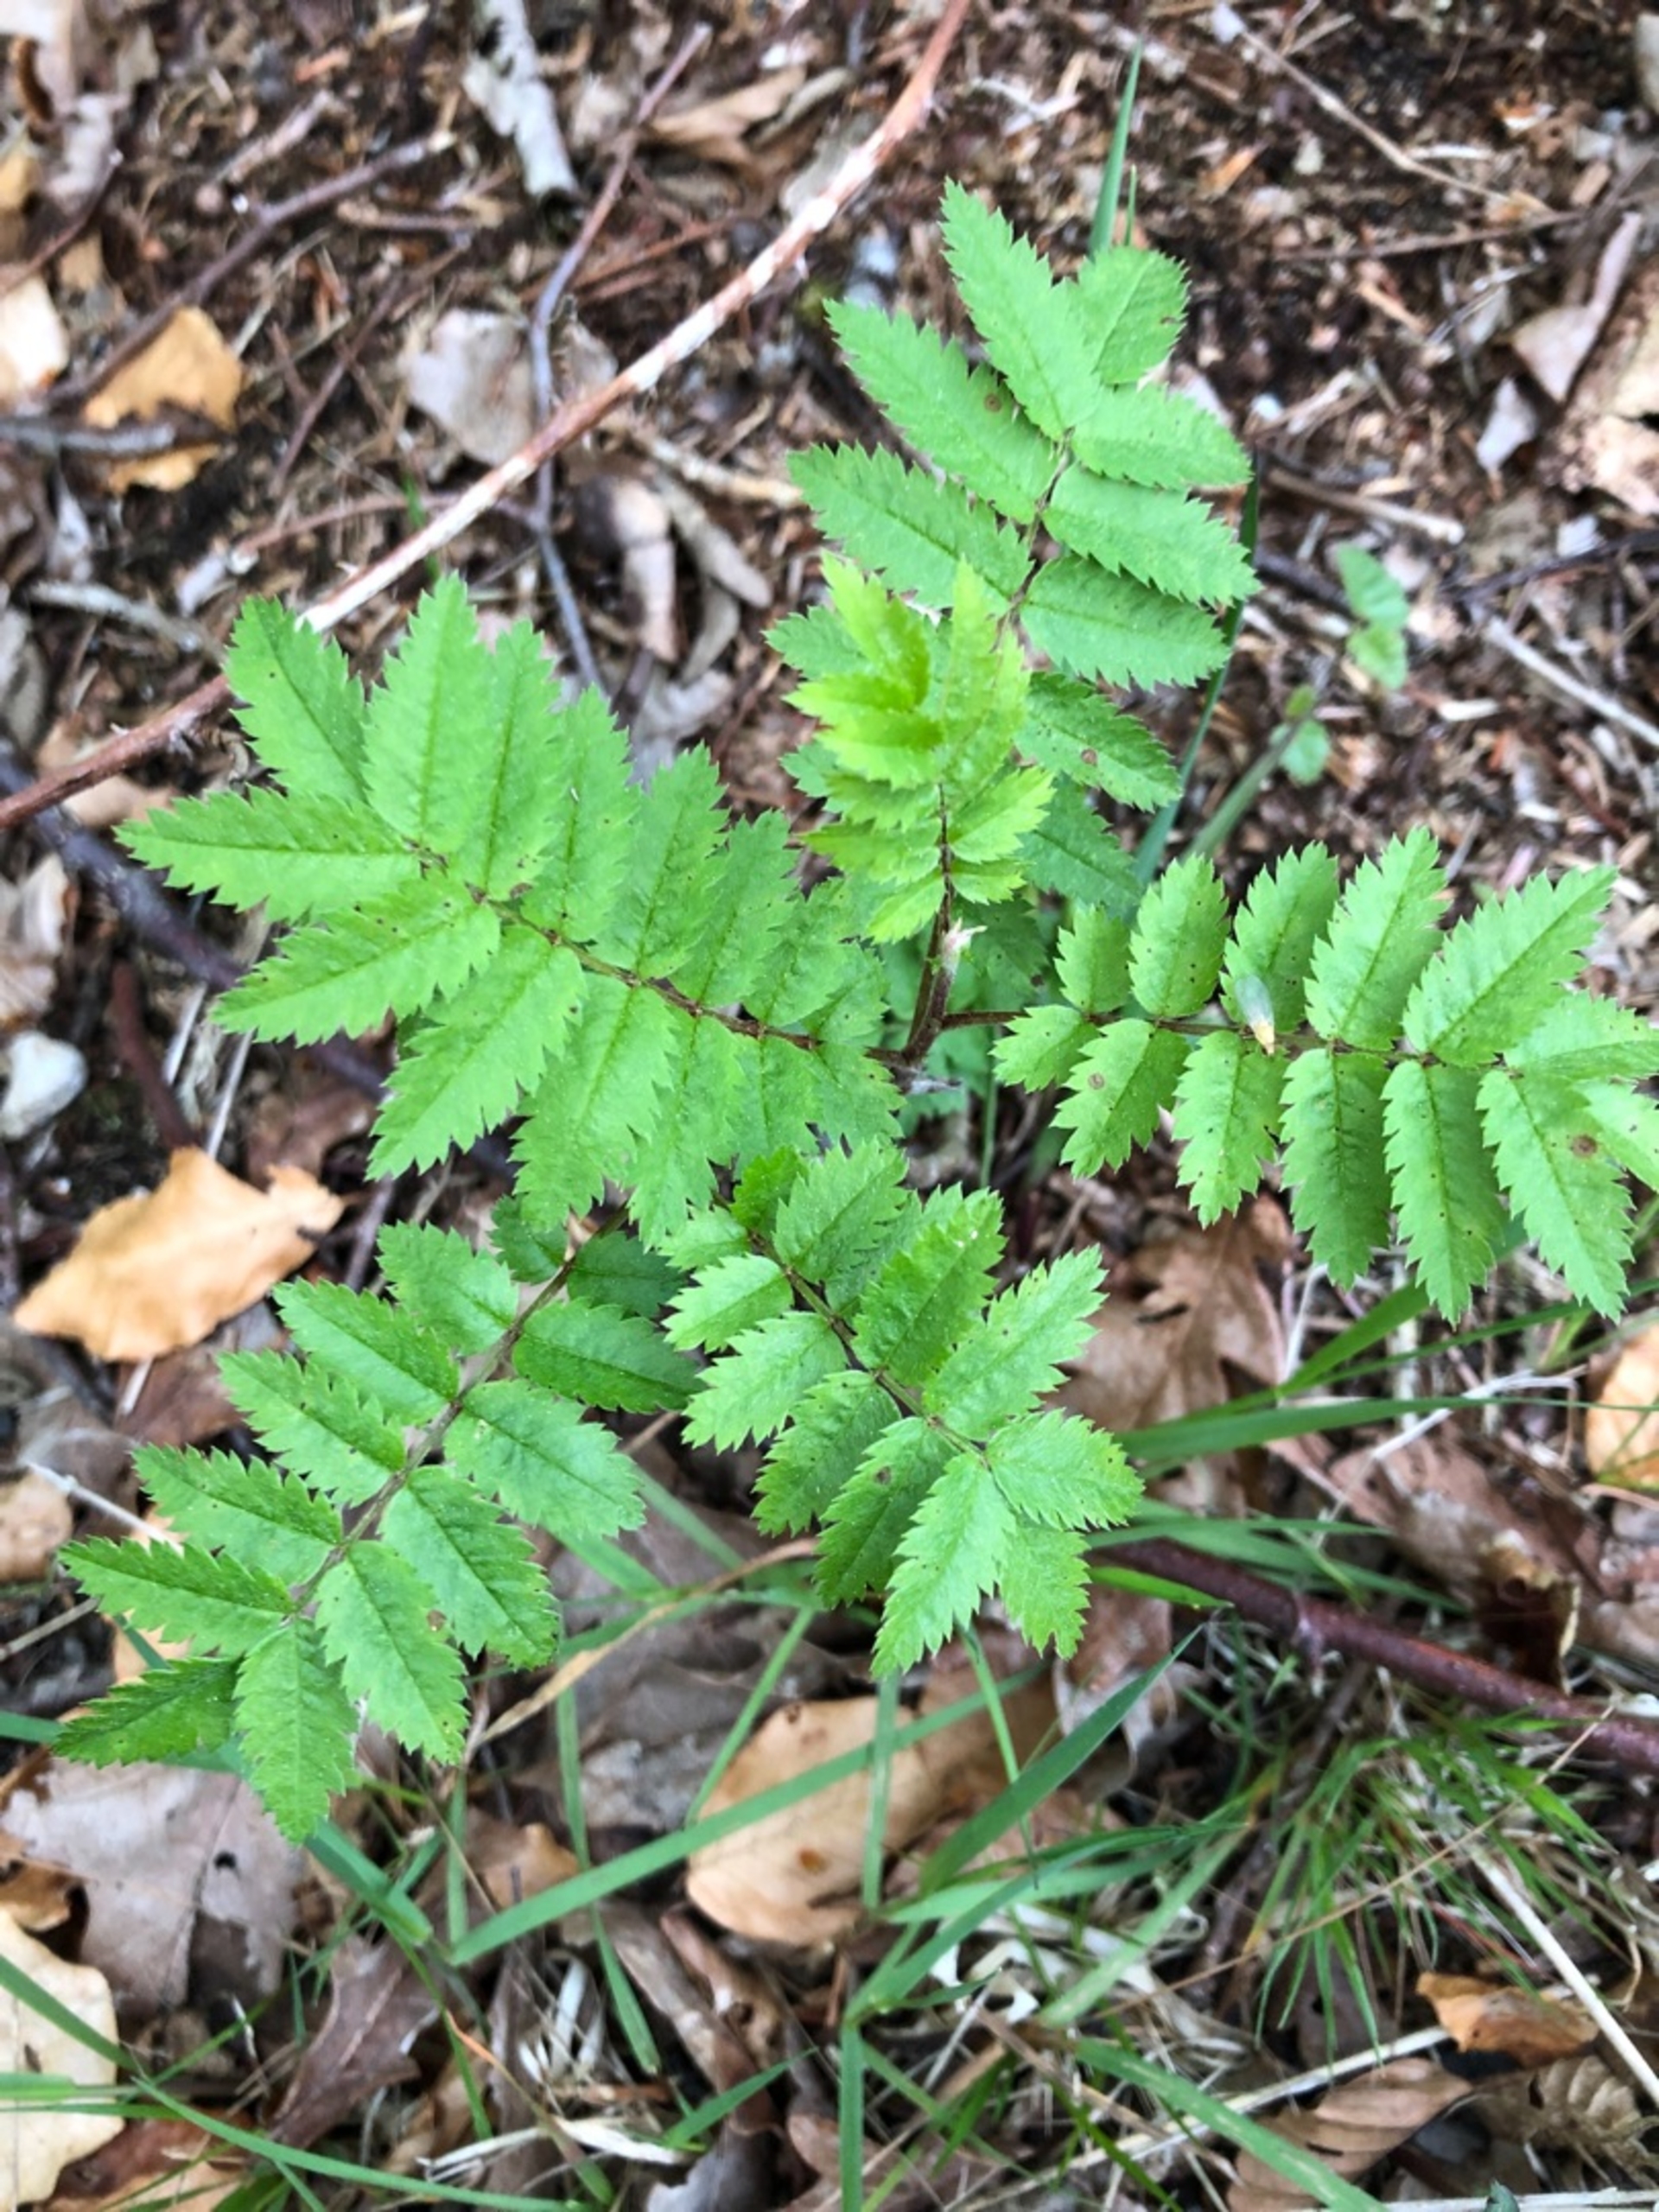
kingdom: Plantae
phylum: Tracheophyta
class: Magnoliopsida
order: Rosales
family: Rosaceae
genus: Sorbus
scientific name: Sorbus aucuparia
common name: Almindelig røn
